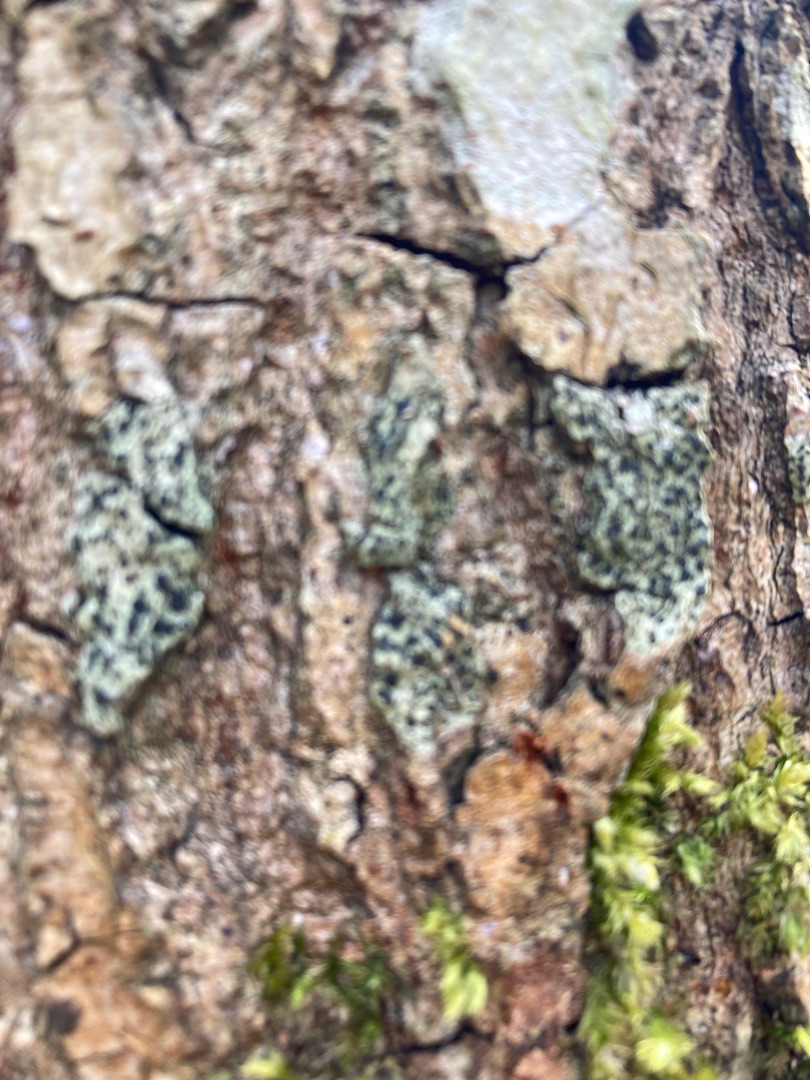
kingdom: Fungi
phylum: Ascomycota
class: Lecanoromycetes
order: Lecanorales
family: Lecanoraceae
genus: Lecidella
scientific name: Lecidella elaeochroma
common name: Grågrøn skivelav
